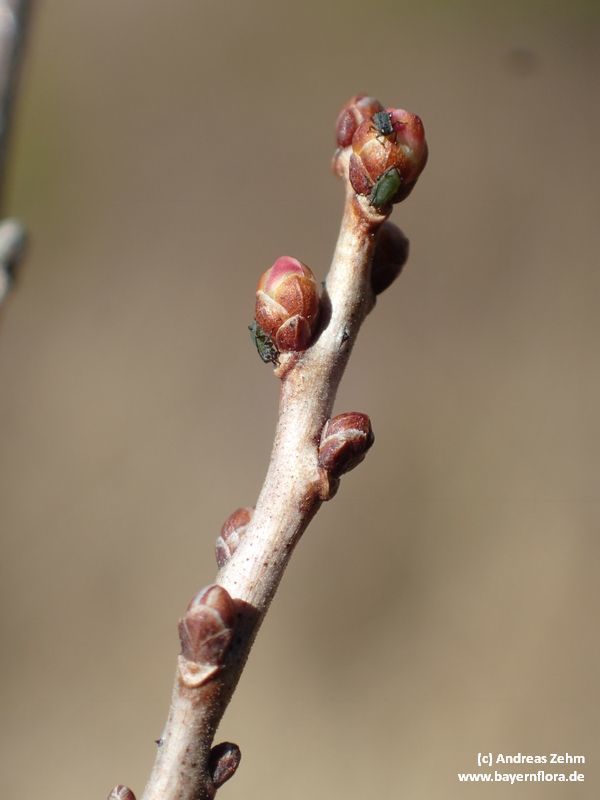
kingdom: Plantae
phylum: Tracheophyta
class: Magnoliopsida
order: Ericales
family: Ericaceae
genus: Vaccinium
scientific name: Vaccinium uliginosum
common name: Bog bilberry
